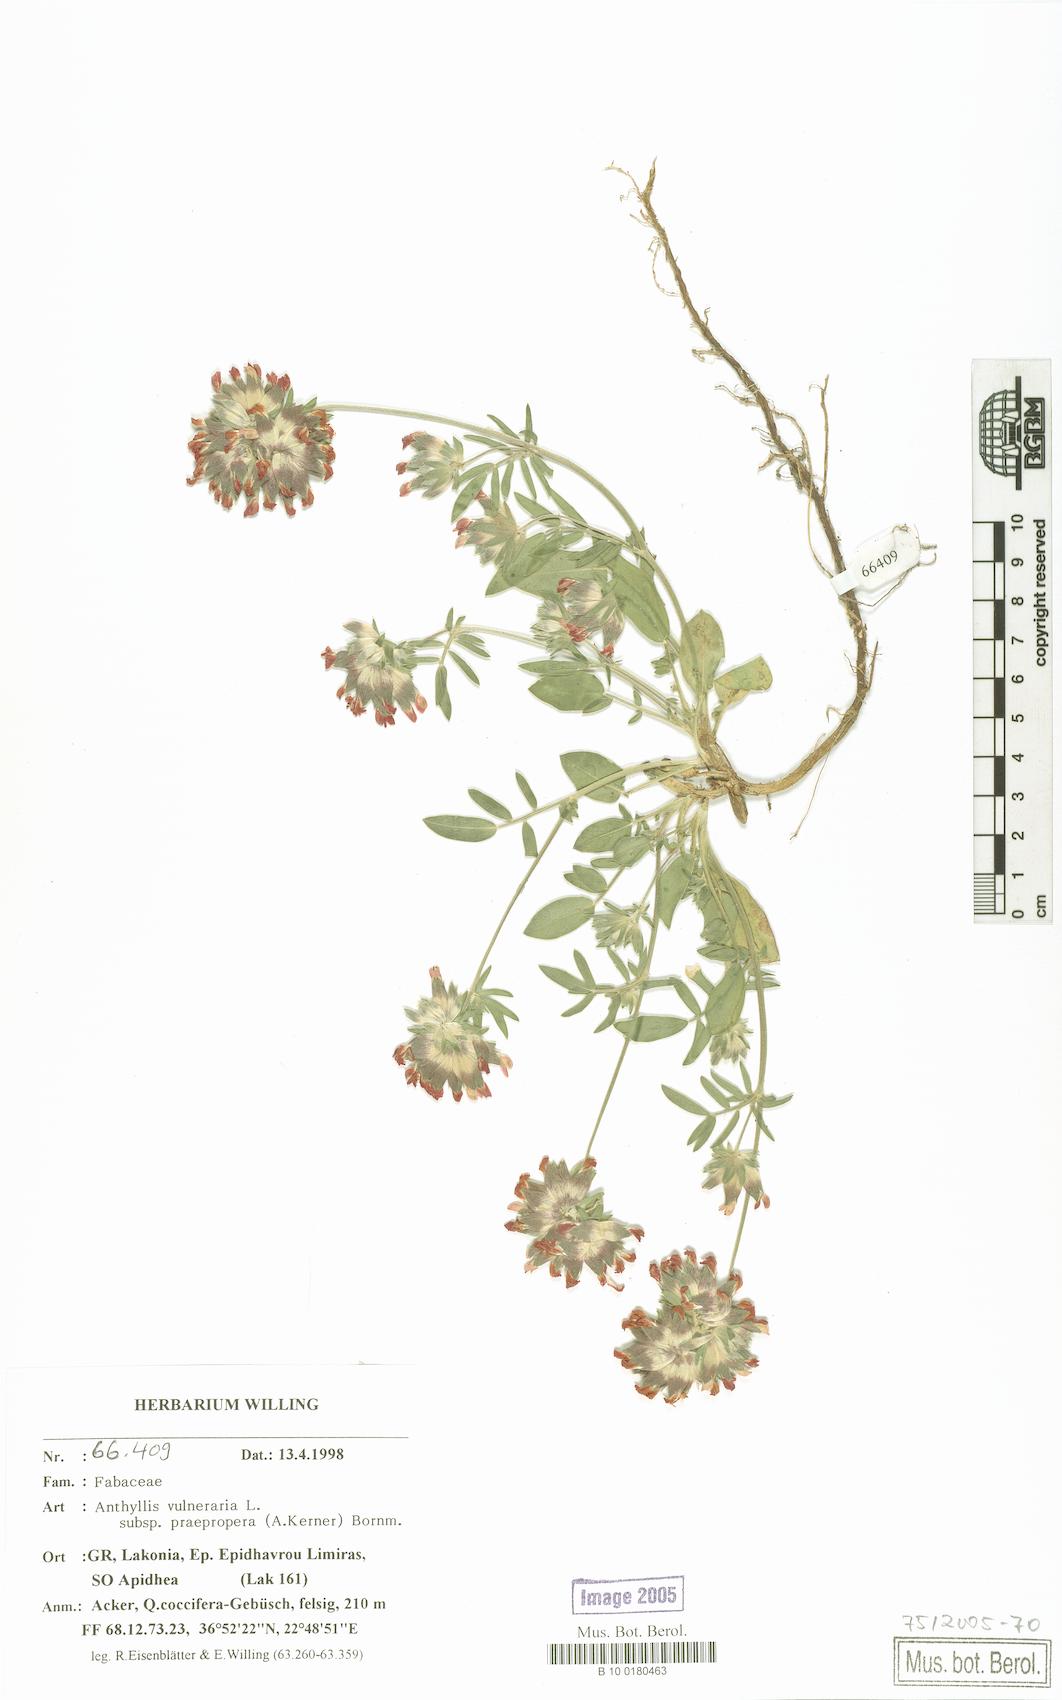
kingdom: Plantae
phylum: Tracheophyta
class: Magnoliopsida
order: Fabales
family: Fabaceae
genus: Anthyllis
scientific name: Anthyllis vulneraria
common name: Kidney vetch
